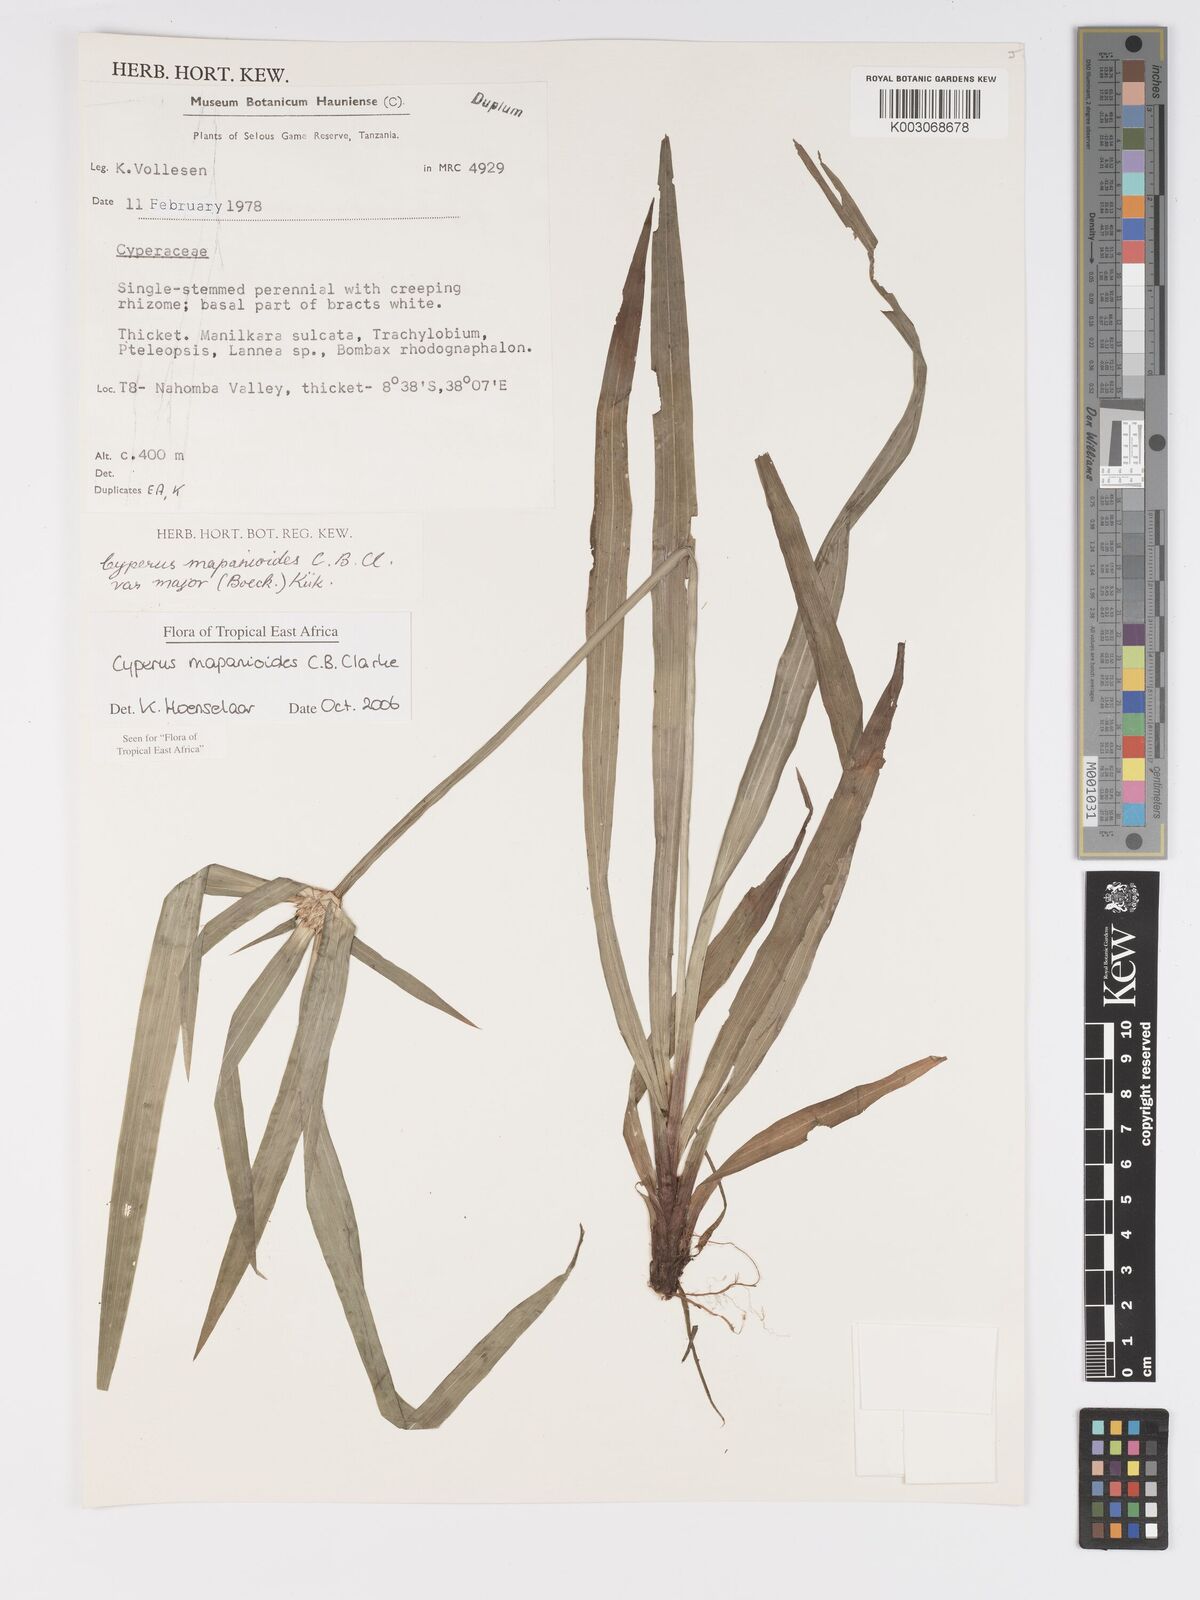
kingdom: Plantae
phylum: Tracheophyta
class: Liliopsida
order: Poales
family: Cyperaceae
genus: Cyperus
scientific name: Cyperus mapanioides
